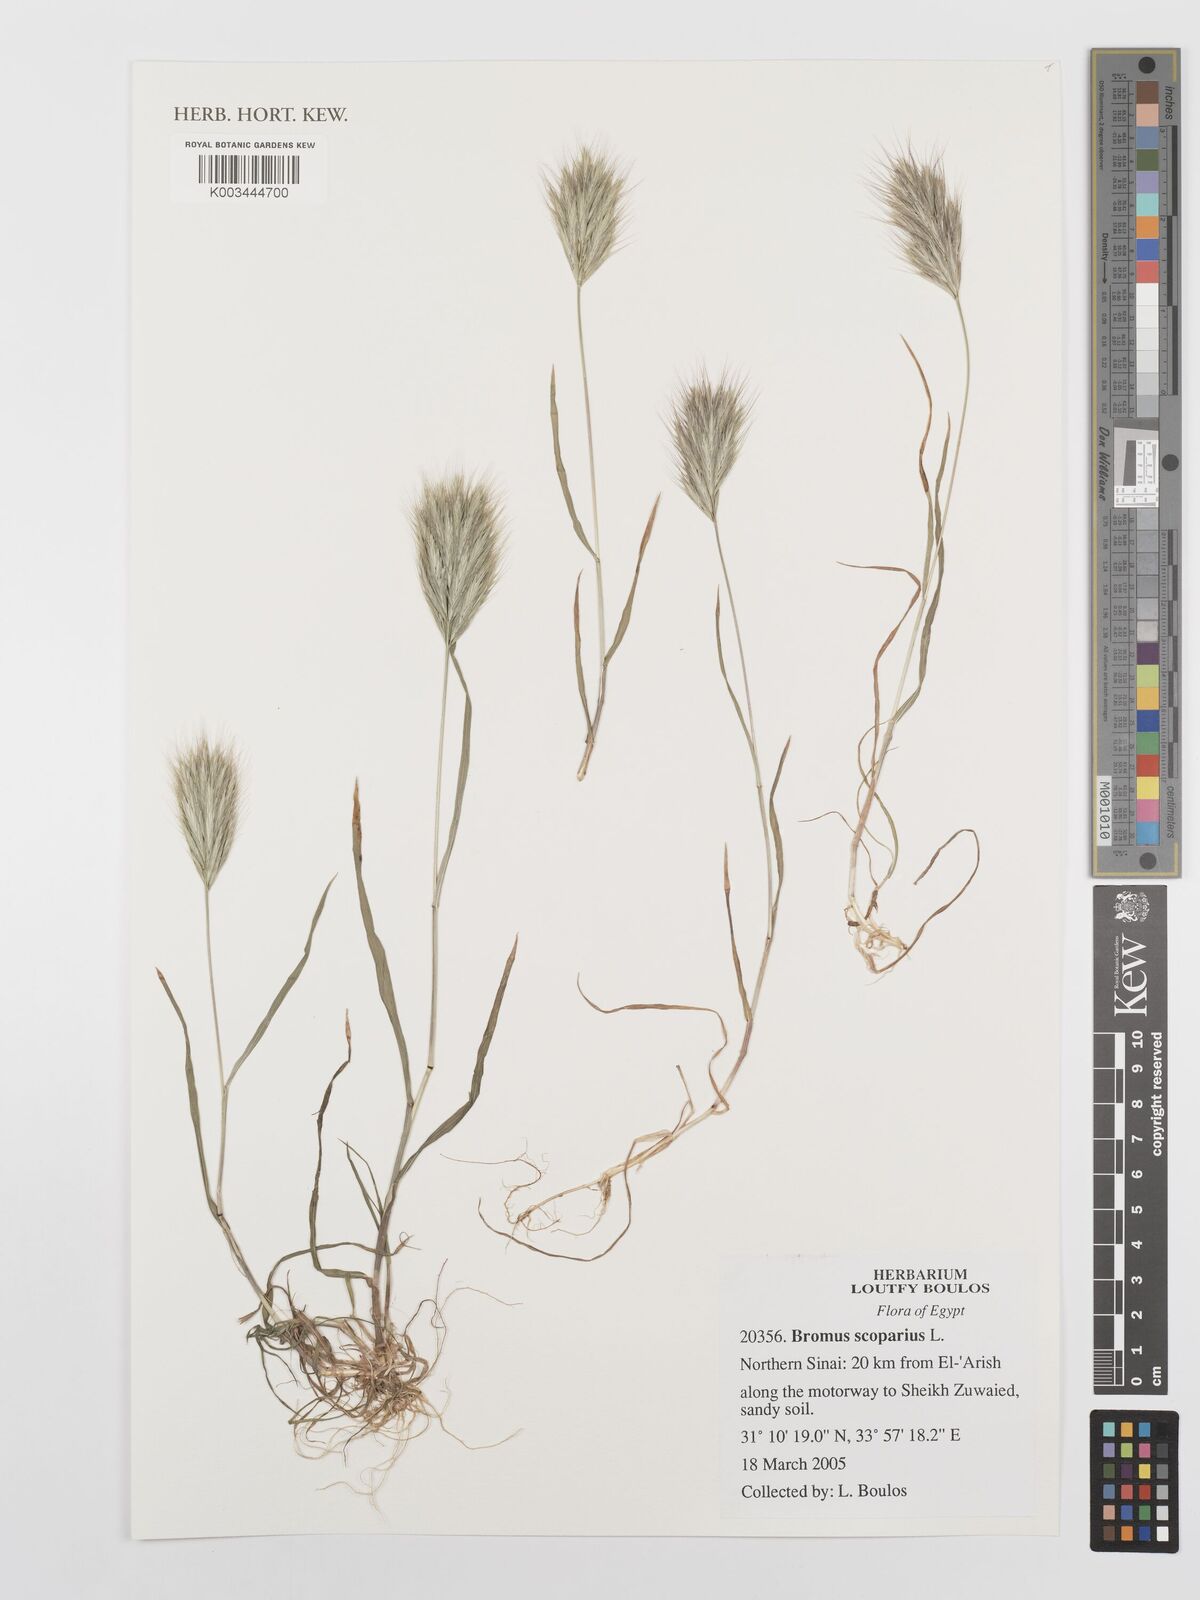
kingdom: Plantae
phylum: Tracheophyta
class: Liliopsida
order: Poales
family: Poaceae
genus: Bromus
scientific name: Bromus scoparius
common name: Broom brome
